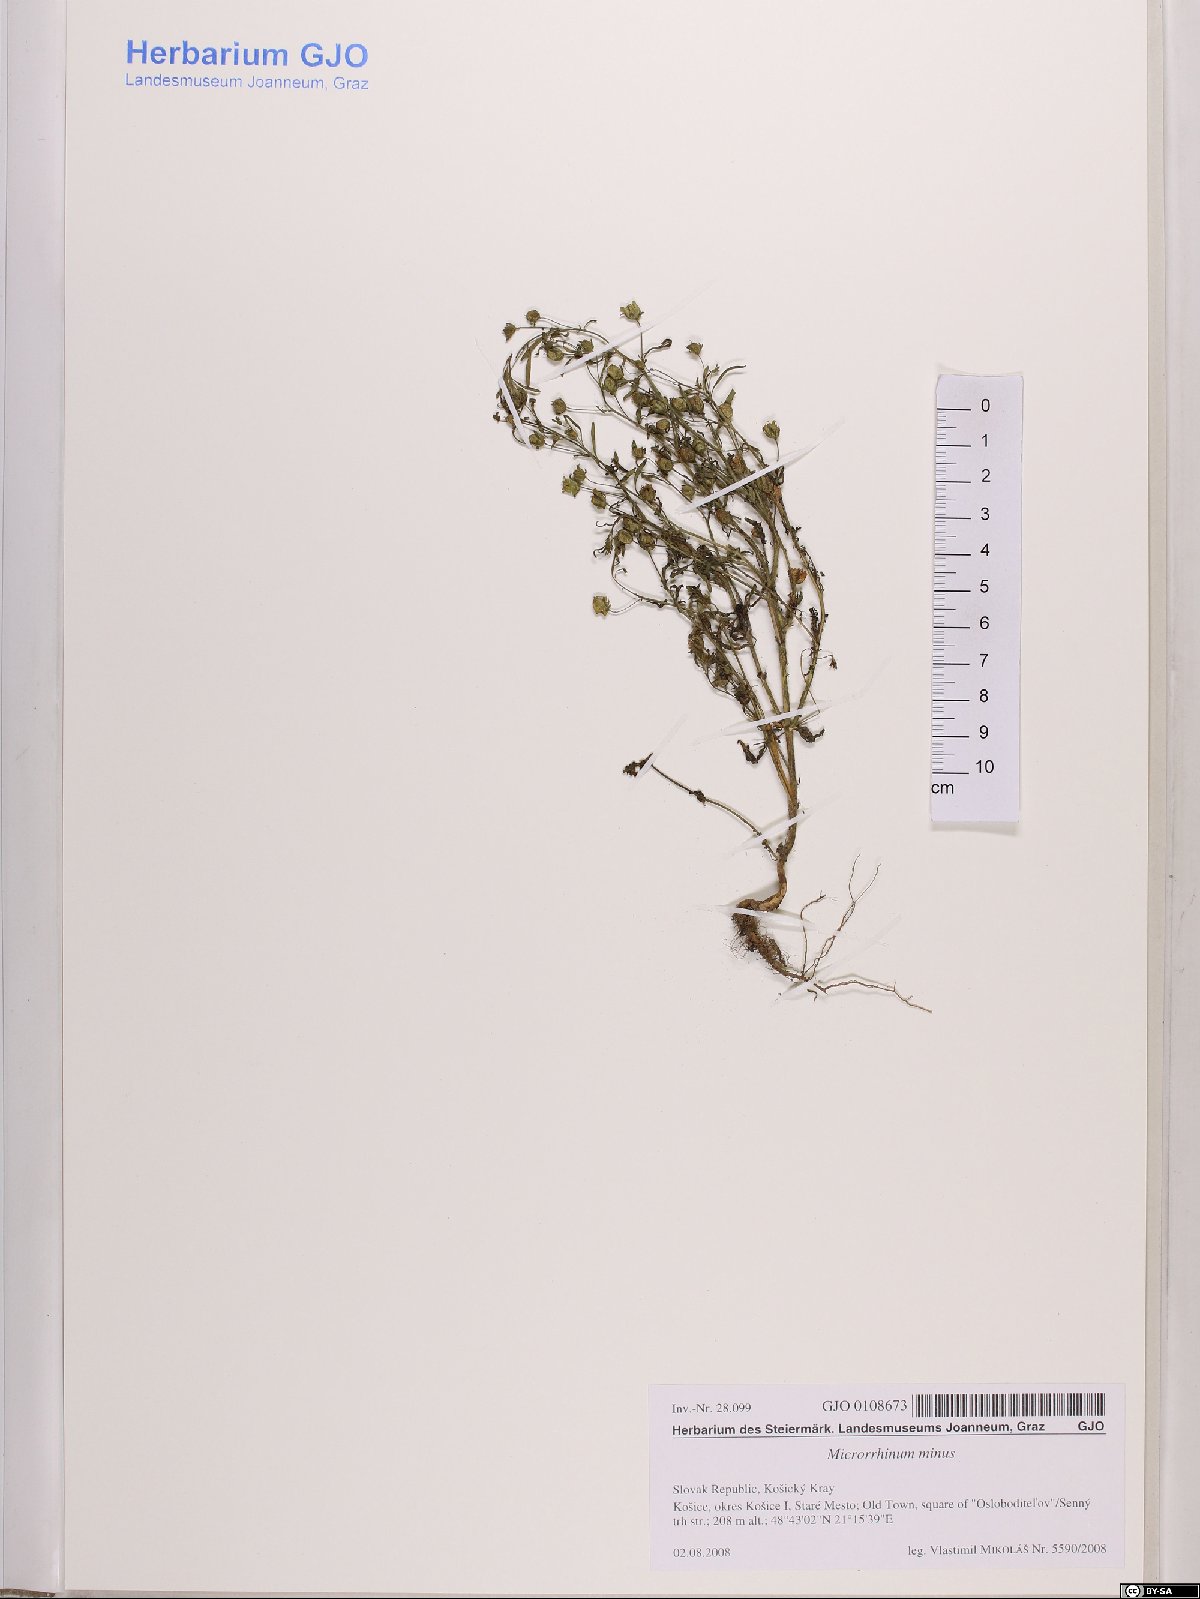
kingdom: Plantae
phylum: Tracheophyta
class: Magnoliopsida
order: Lamiales
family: Plantaginaceae
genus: Chaenorhinum
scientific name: Chaenorhinum minus
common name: Dwarf snapdragon
